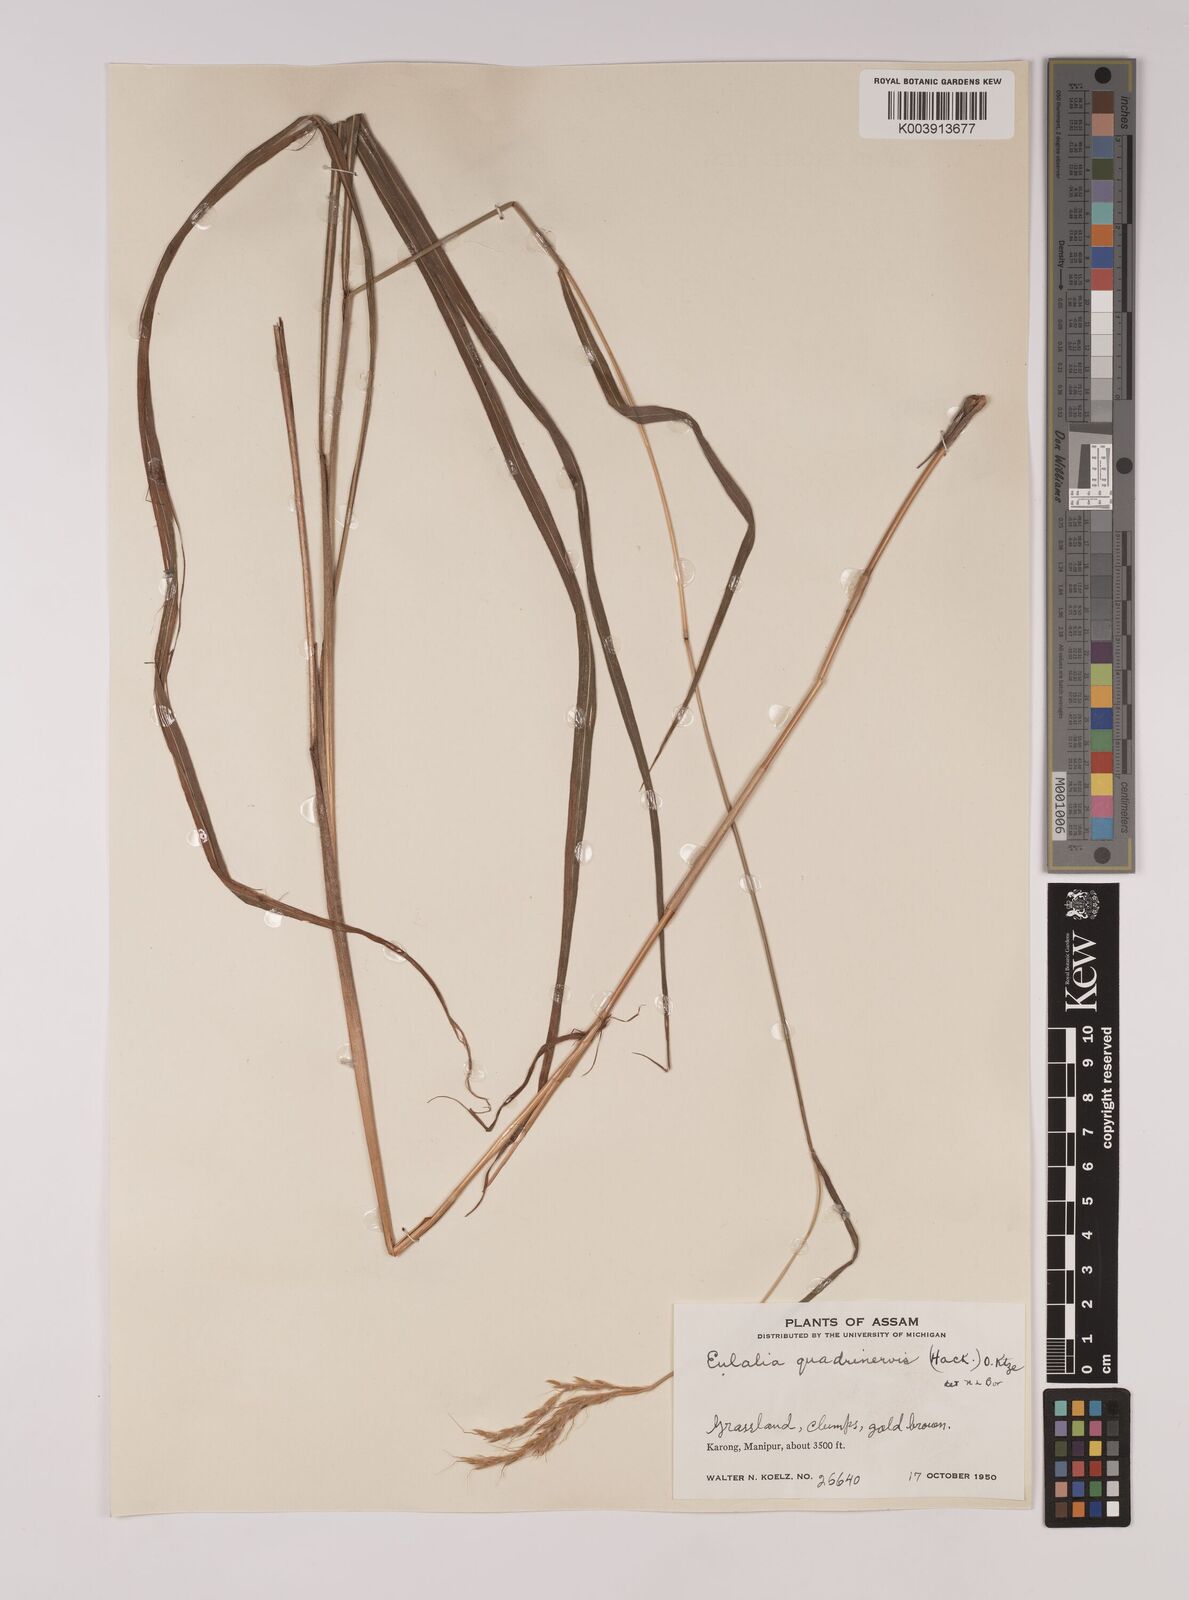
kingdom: Plantae
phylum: Tracheophyta
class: Liliopsida
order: Poales
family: Poaceae
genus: Pseudopogonatherum
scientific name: Pseudopogonatherum quadrinerve
